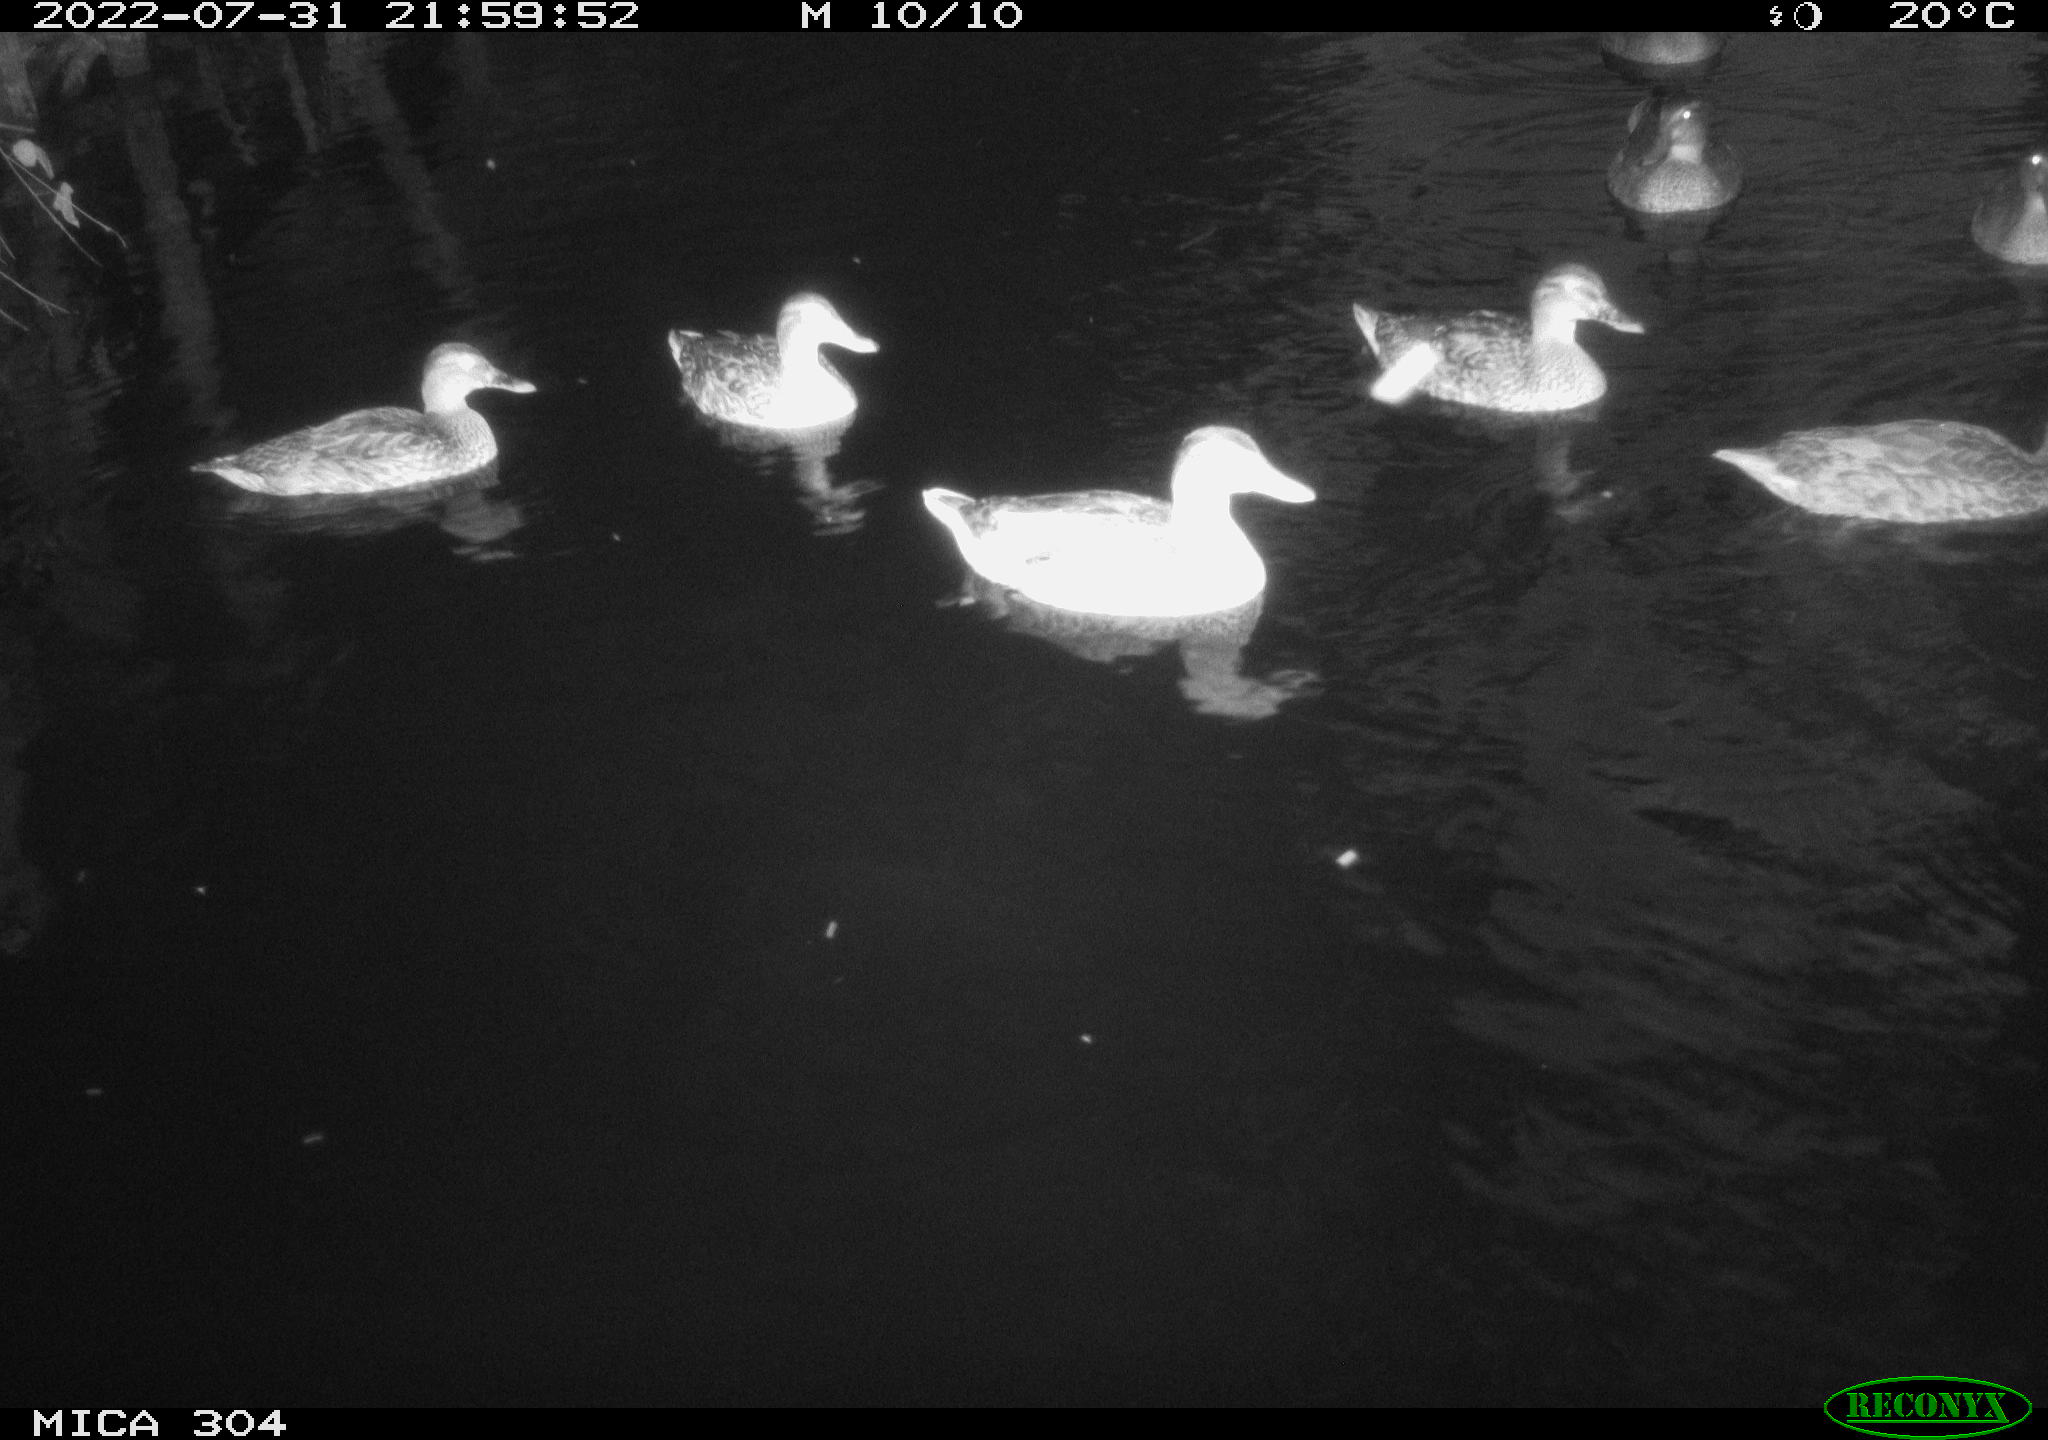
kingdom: Animalia
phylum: Chordata
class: Aves
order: Anseriformes
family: Anatidae
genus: Anas
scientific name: Anas platyrhynchos
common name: Mallard
